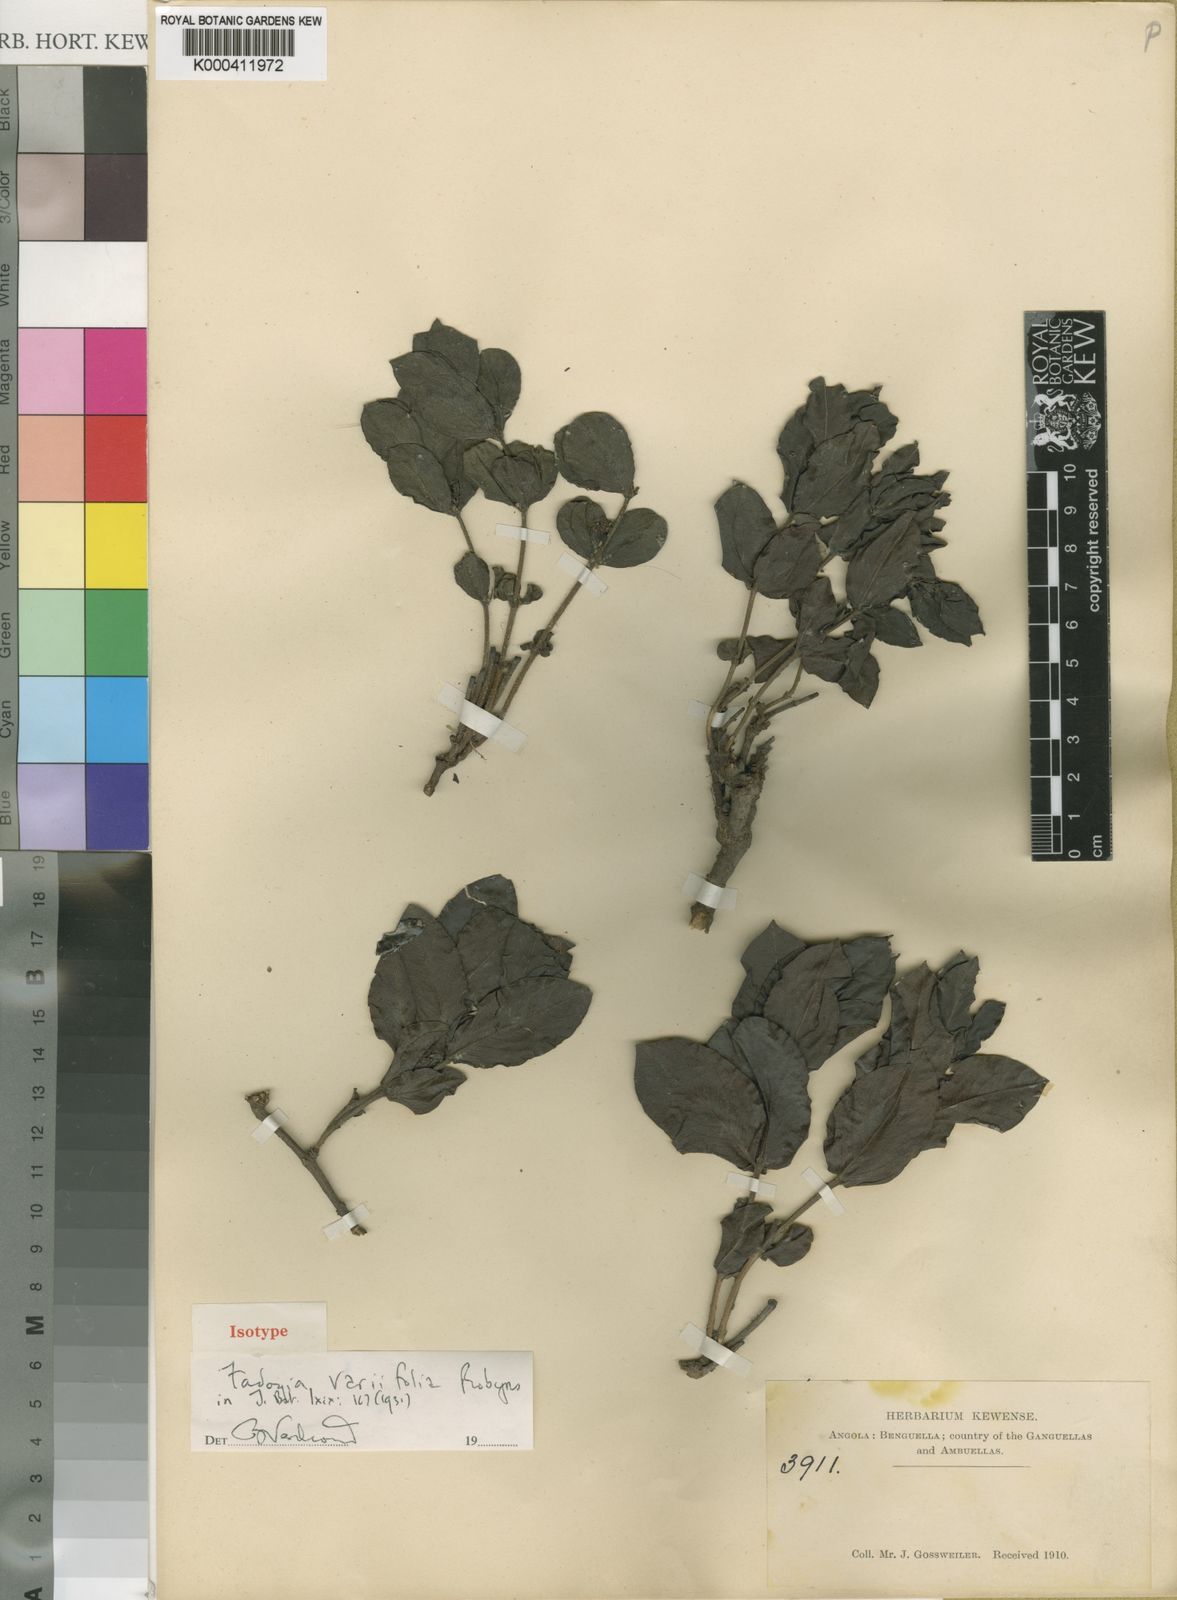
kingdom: Plantae
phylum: Tracheophyta
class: Magnoliopsida
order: Gentianales
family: Rubiaceae
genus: Fadogia
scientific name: Fadogia variifolia
